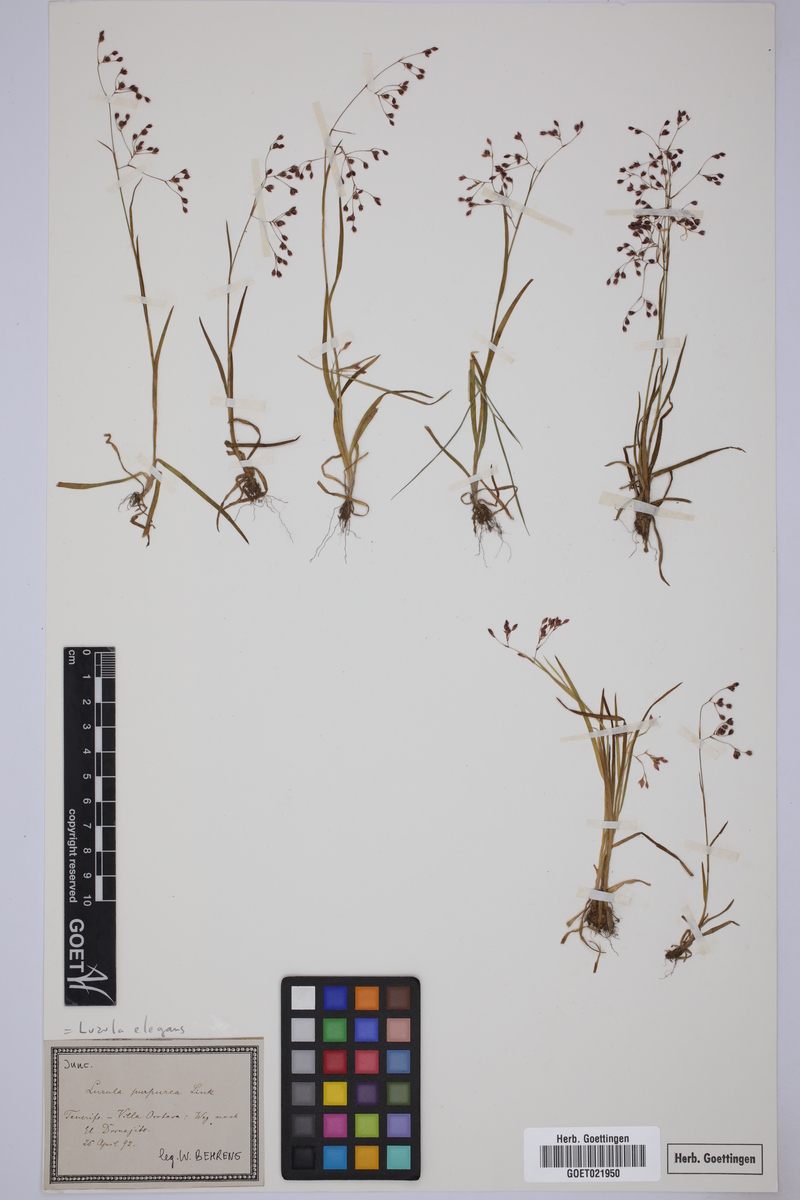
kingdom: Plantae
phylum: Tracheophyta
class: Liliopsida
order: Poales
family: Juncaceae
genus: Luzula
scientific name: Luzula elegans
